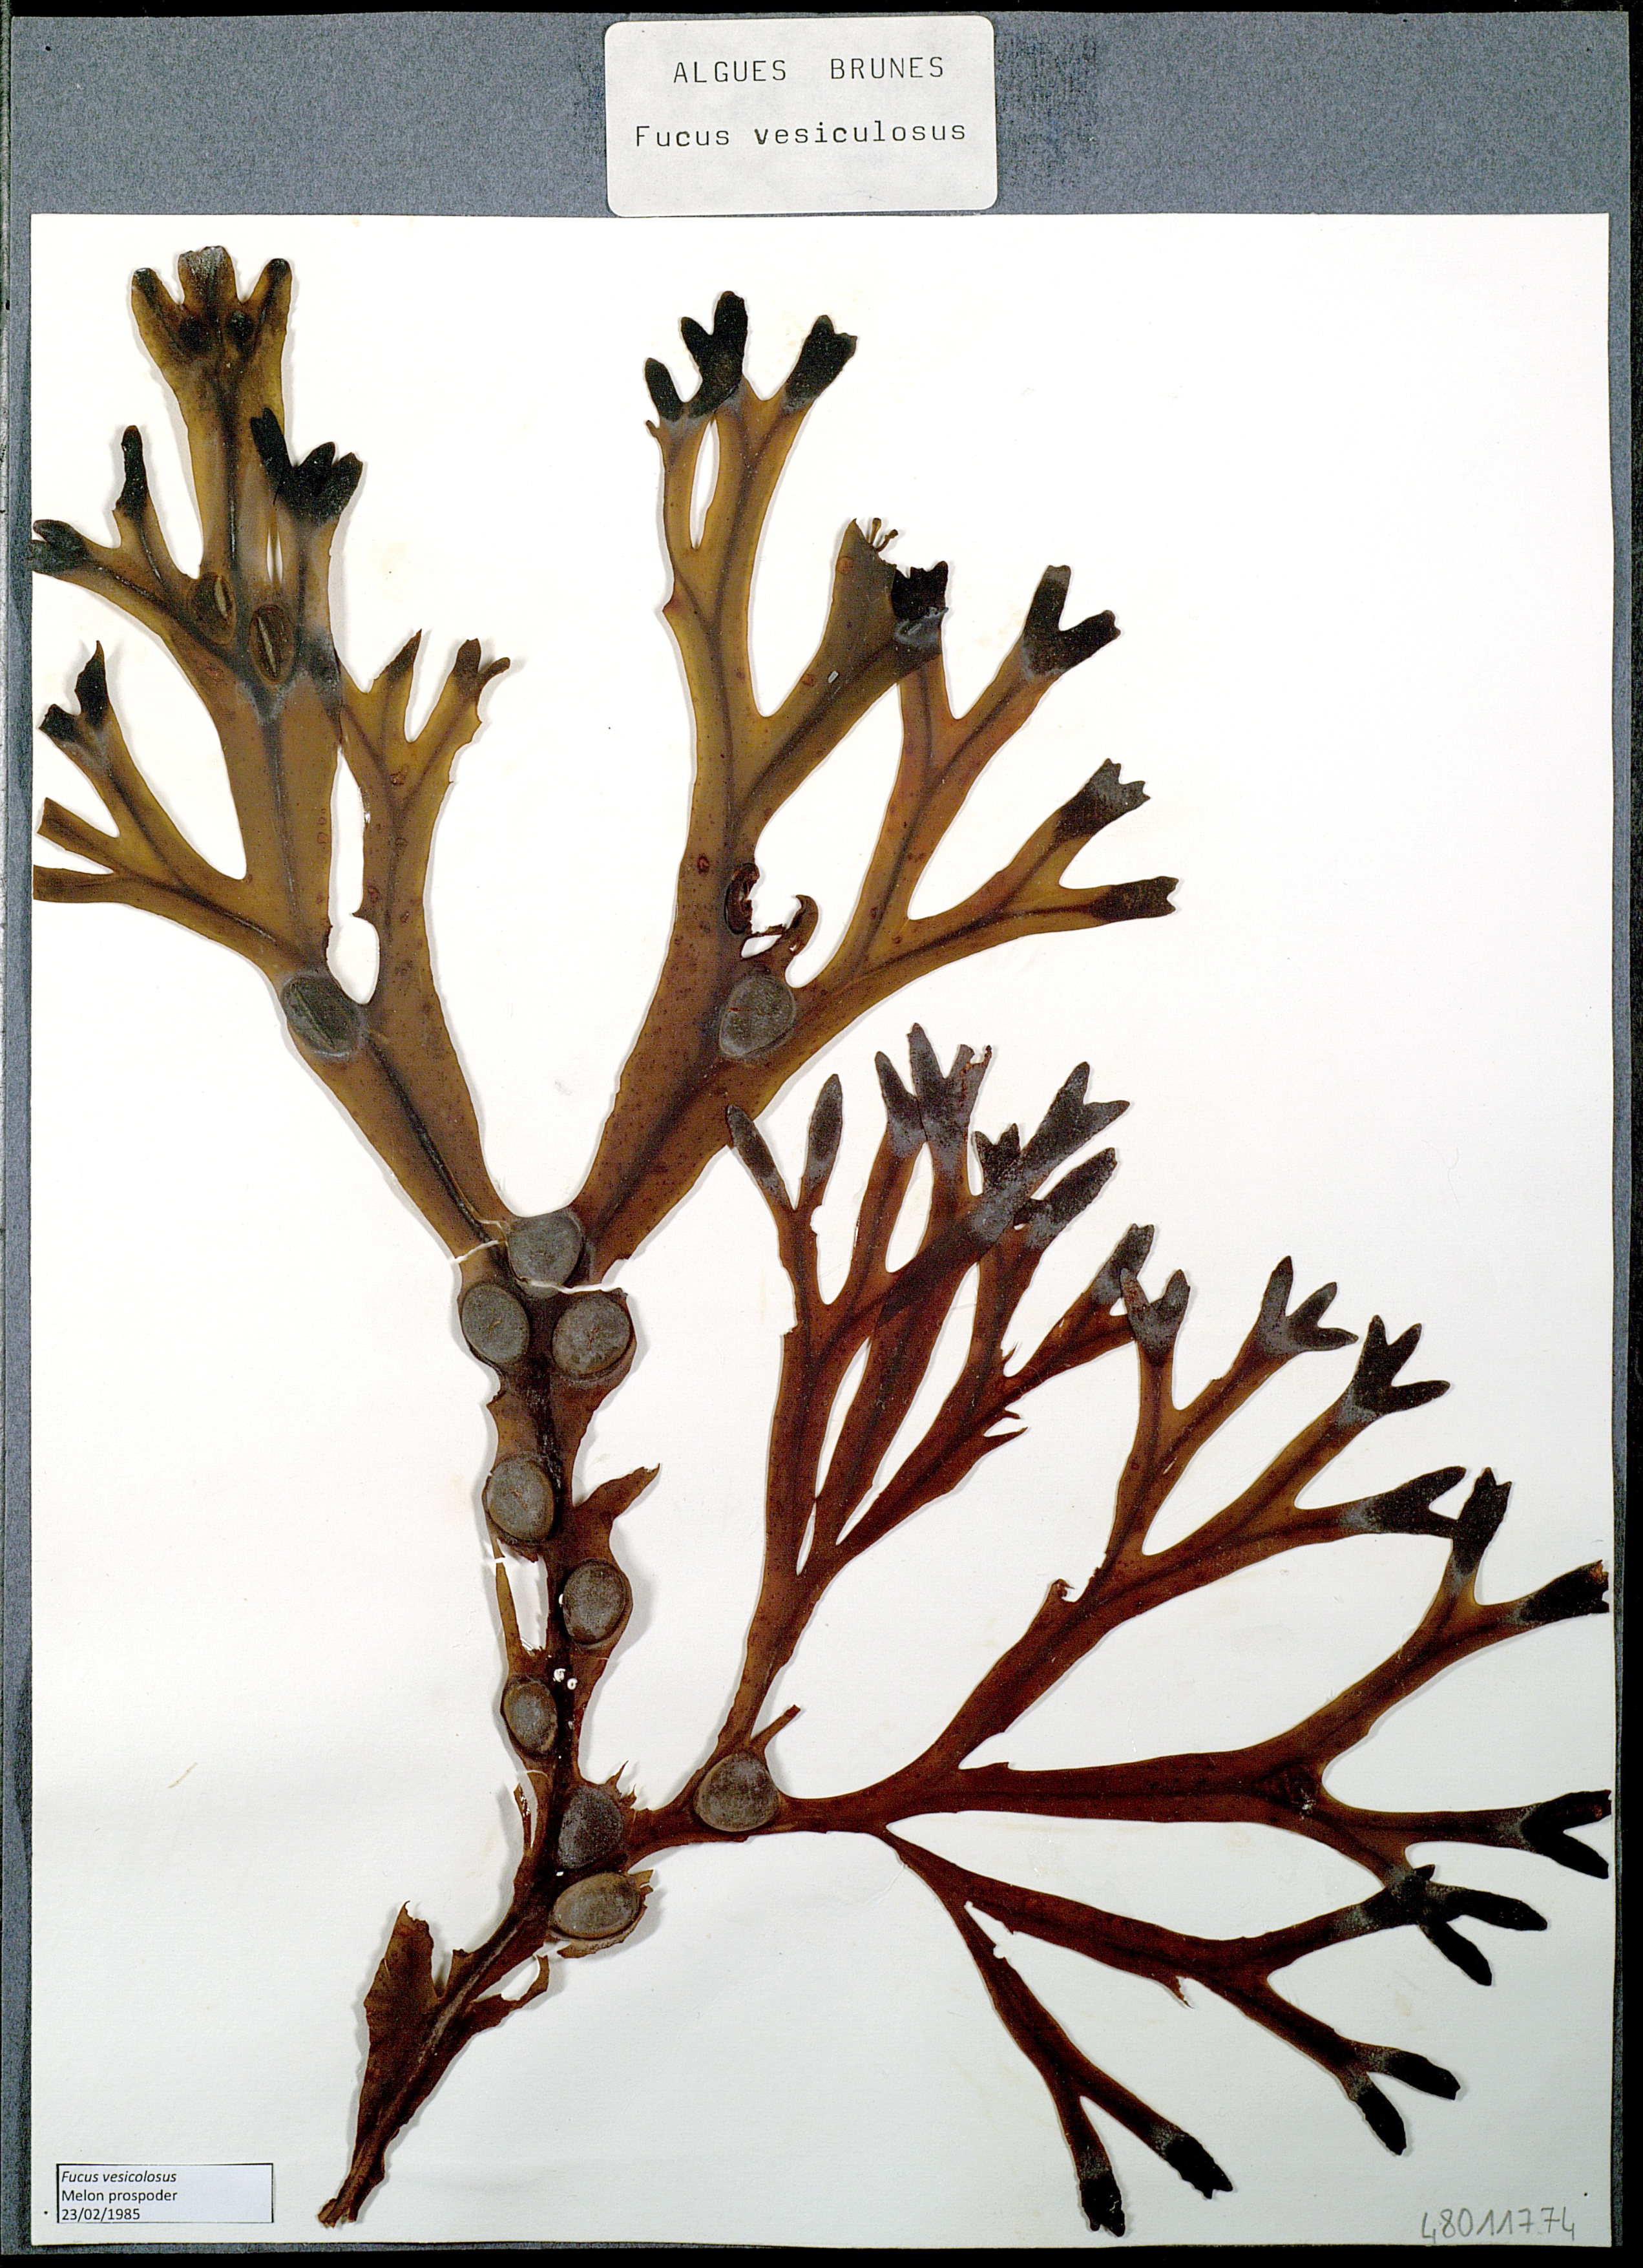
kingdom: Chromista
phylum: Ochrophyta
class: Phaeophyceae
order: Fucales
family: Fucaceae
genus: Fucus
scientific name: Fucus vesiculosus
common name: Bladder wrack
